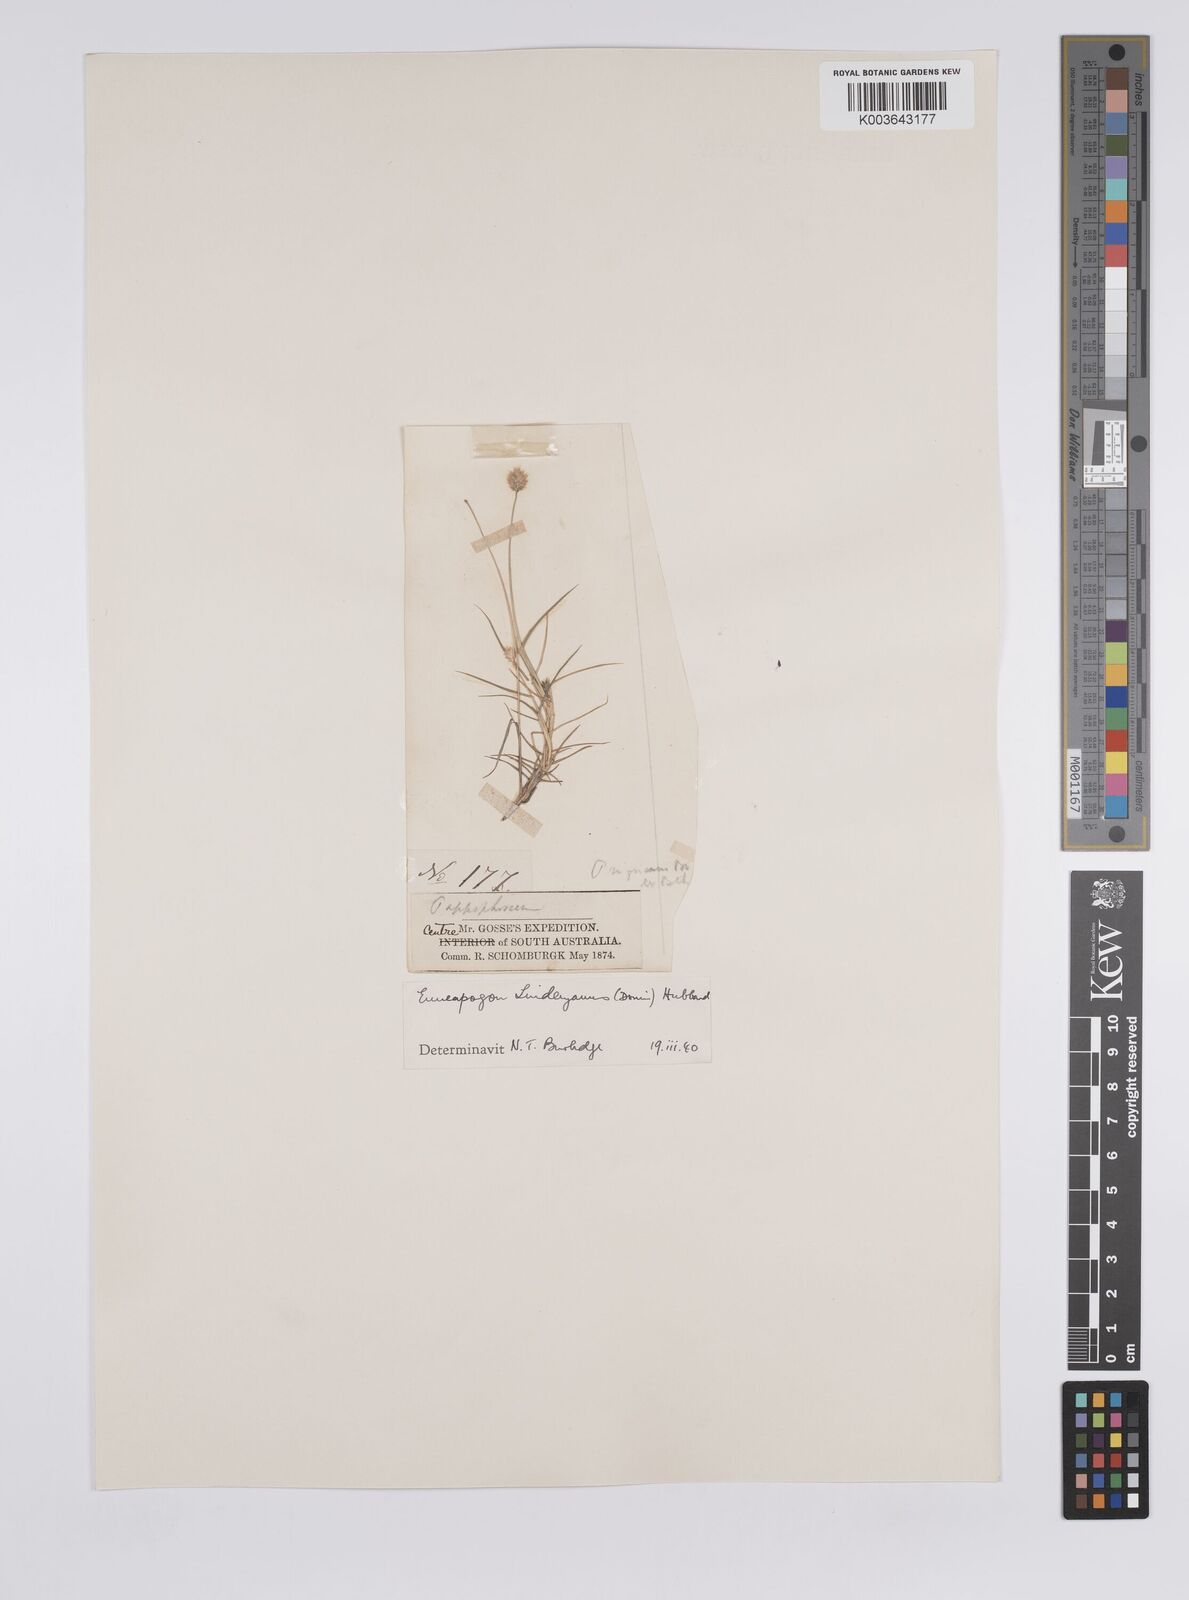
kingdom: Plantae
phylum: Tracheophyta
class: Liliopsida
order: Poales
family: Poaceae
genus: Enneapogon
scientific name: Enneapogon lindleyanus
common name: Conetop nineawn
